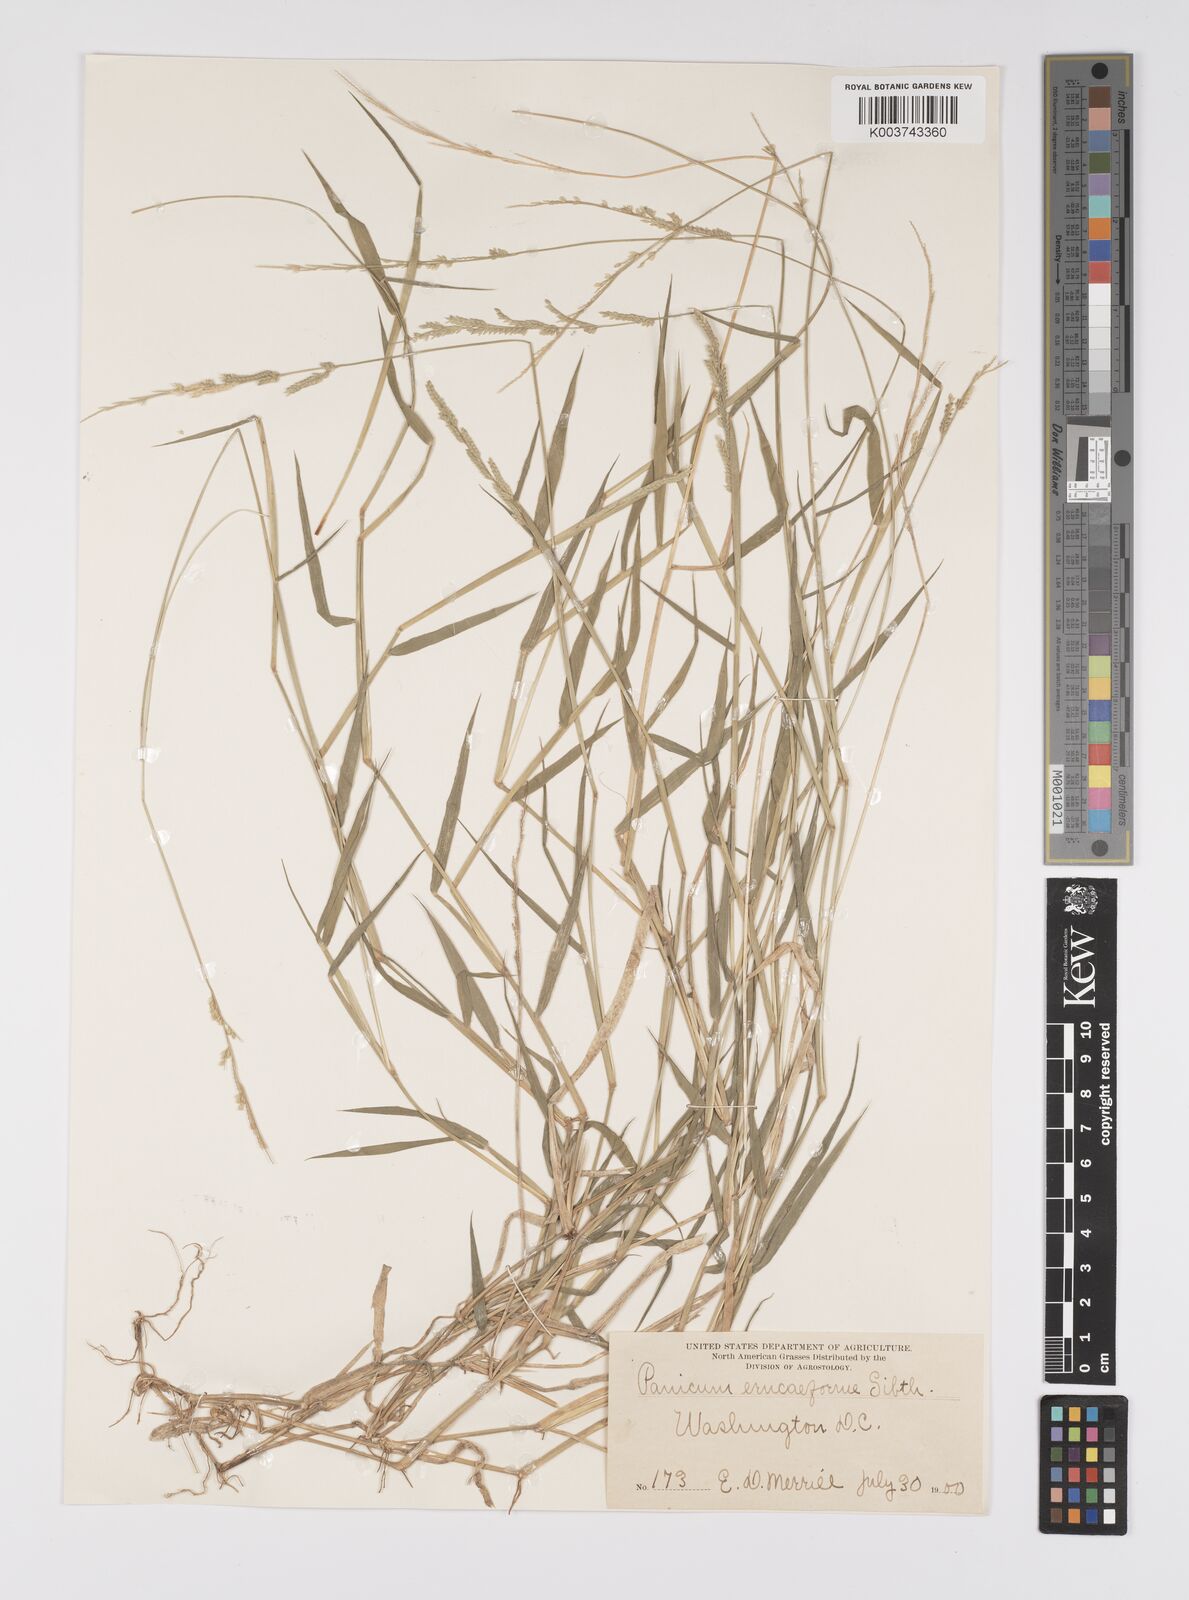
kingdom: Plantae
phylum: Tracheophyta
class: Liliopsida
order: Poales
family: Poaceae
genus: Moorochloa
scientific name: Moorochloa eruciformis
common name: Sweet signalgrass
